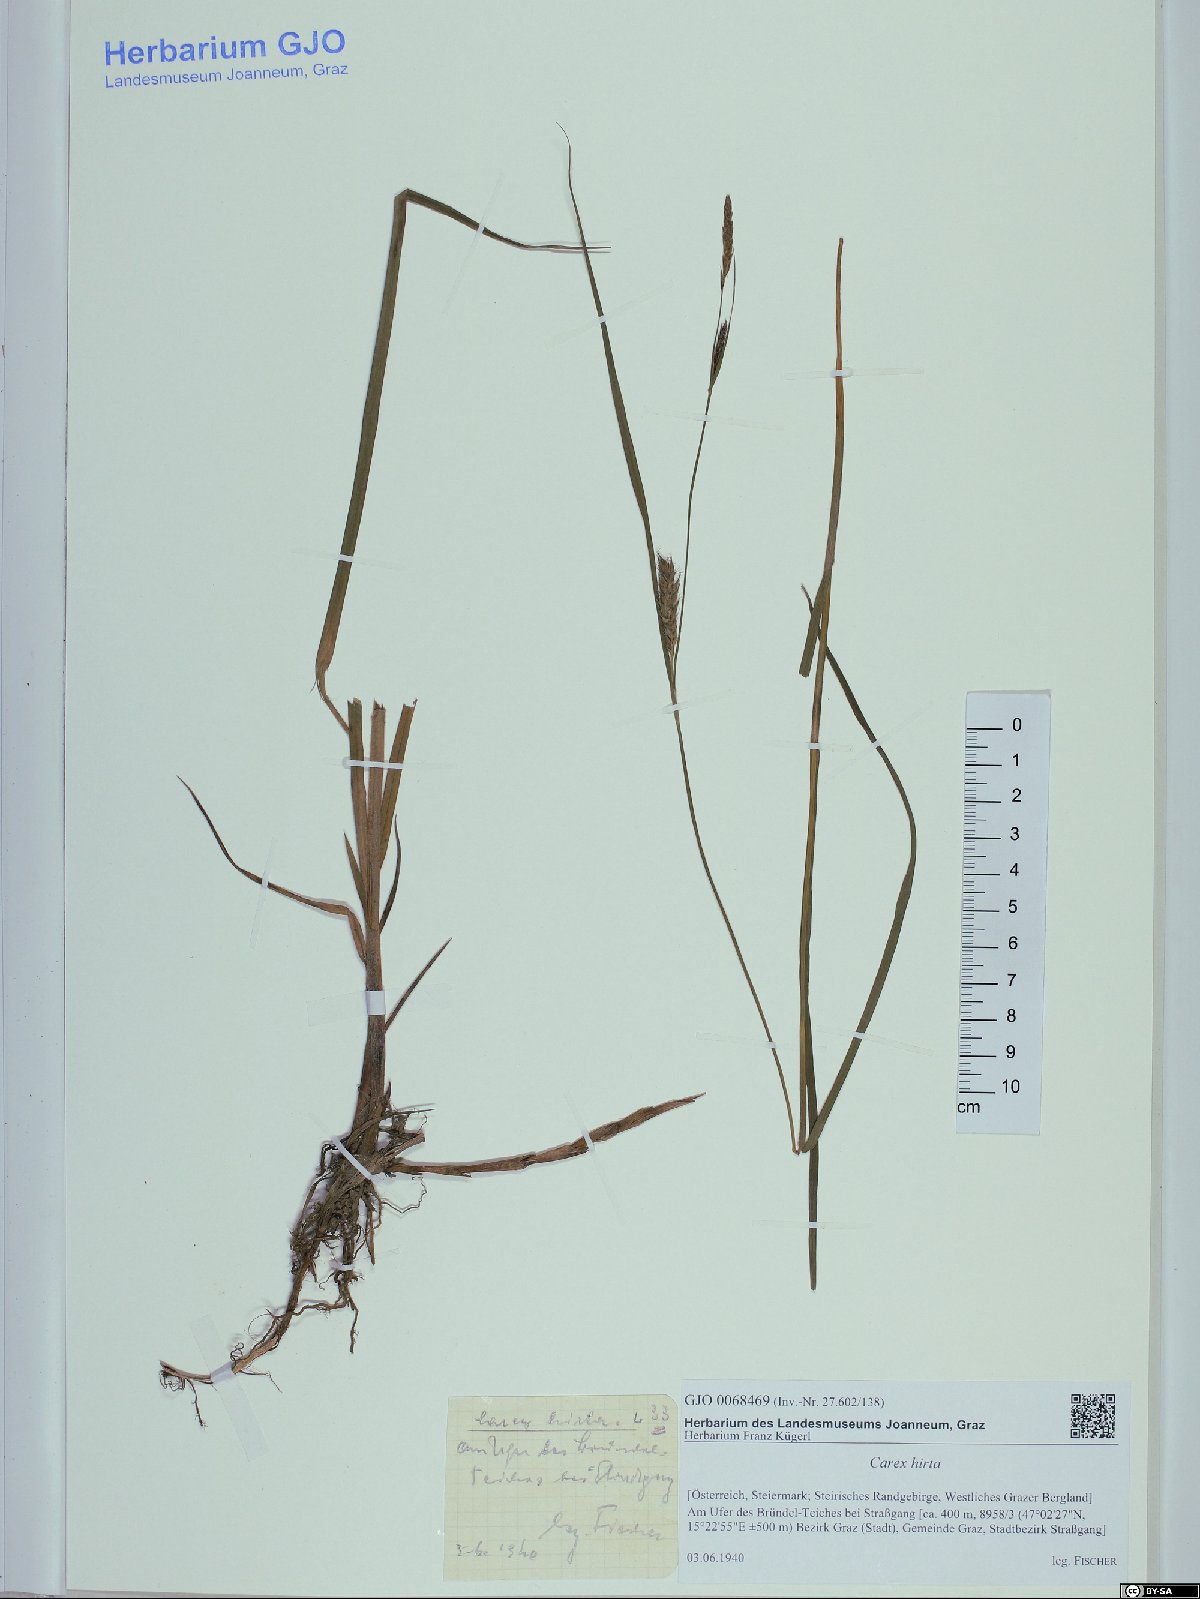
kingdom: Plantae
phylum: Tracheophyta
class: Liliopsida
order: Poales
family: Cyperaceae
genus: Carex
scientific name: Carex hirta
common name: Hairy sedge
